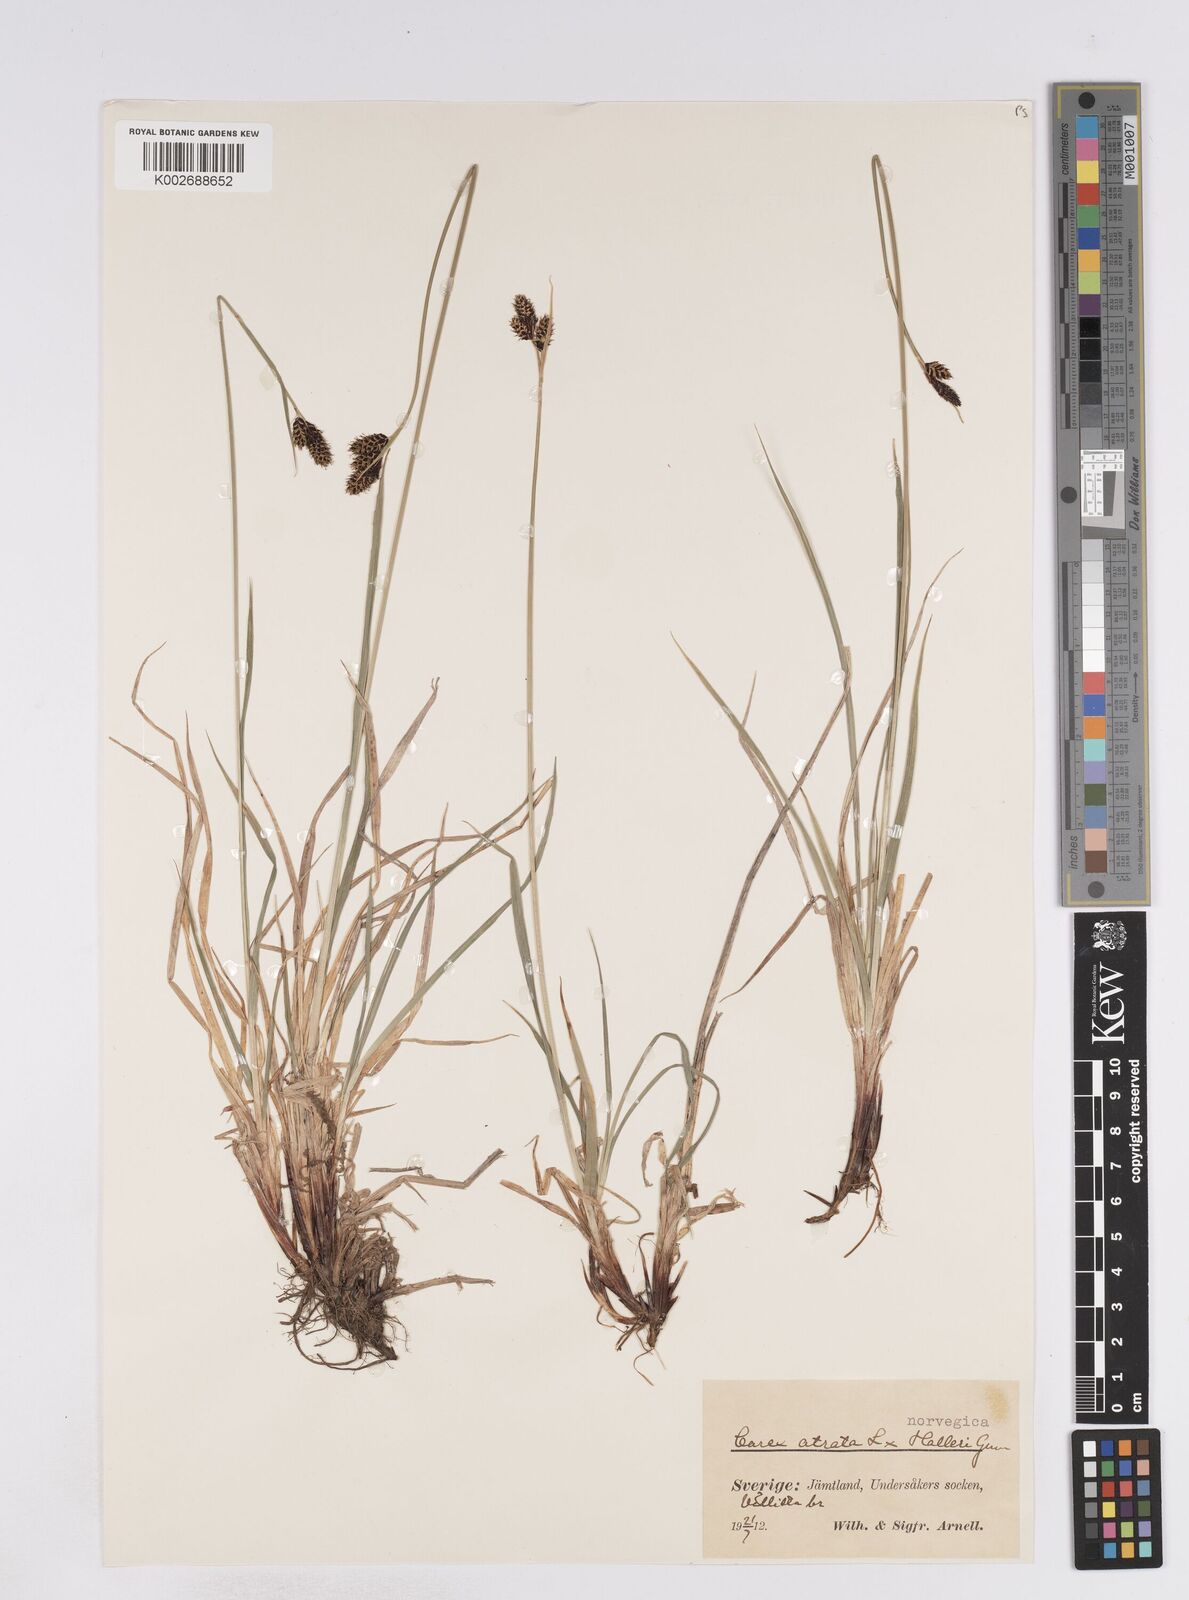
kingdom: Plantae
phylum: Tracheophyta
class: Liliopsida
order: Poales
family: Cyperaceae
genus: Carex
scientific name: Carex norvegica
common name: Close-headed alpine-sedge
